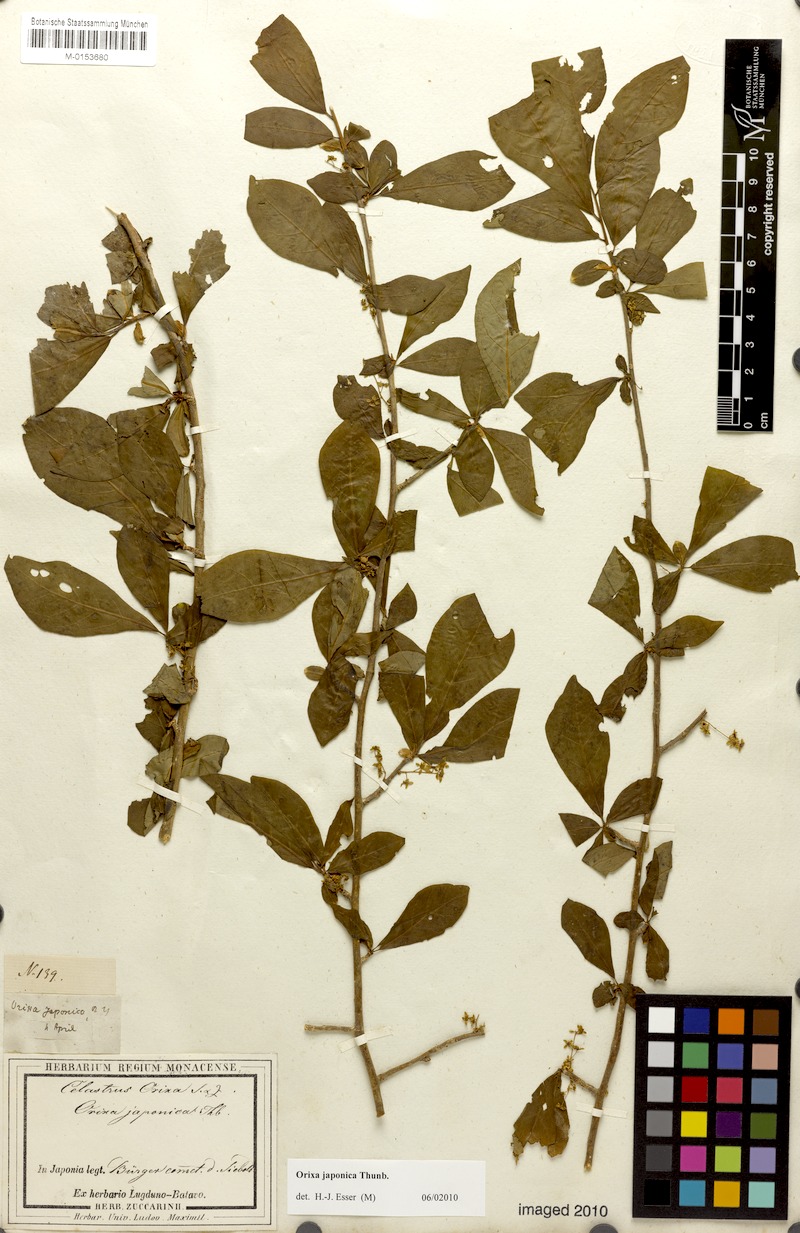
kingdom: Plantae
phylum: Tracheophyta
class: Magnoliopsida
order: Sapindales
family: Rutaceae
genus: Orixa
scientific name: Orixa japonica
